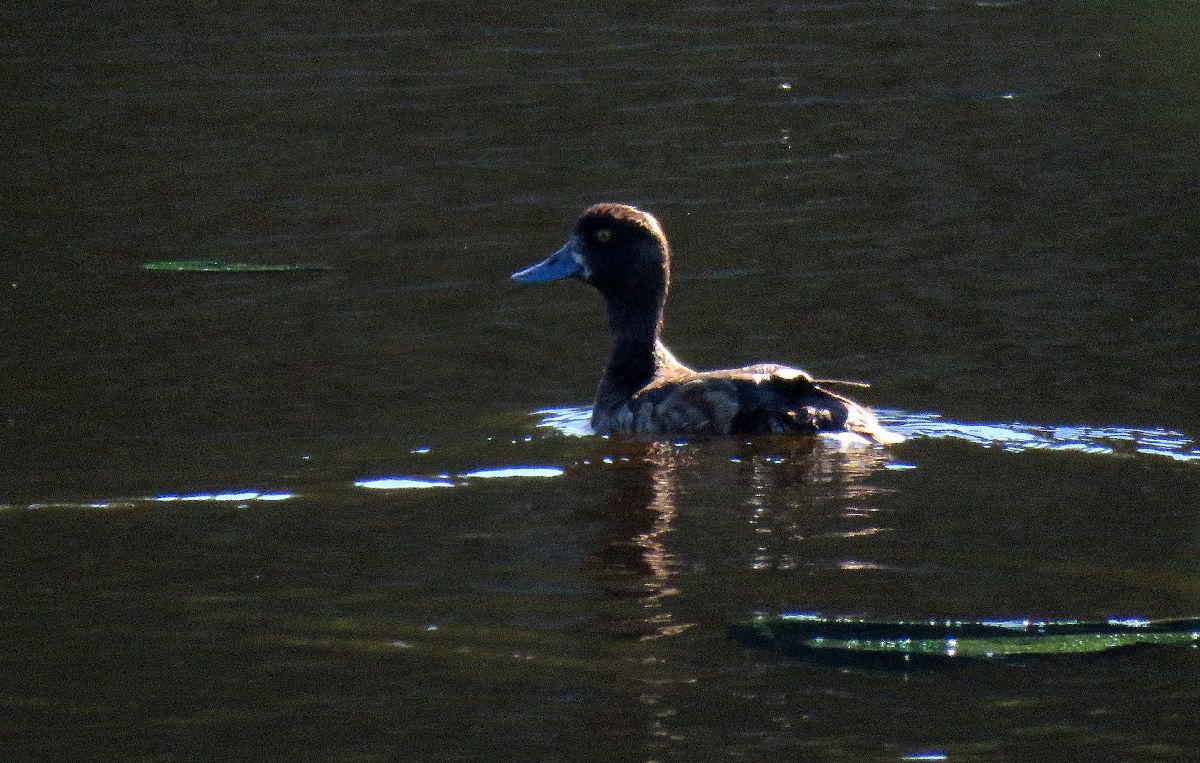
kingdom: Animalia
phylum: Chordata
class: Aves
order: Anseriformes
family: Anatidae
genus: Aythya
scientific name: Aythya fuligula
